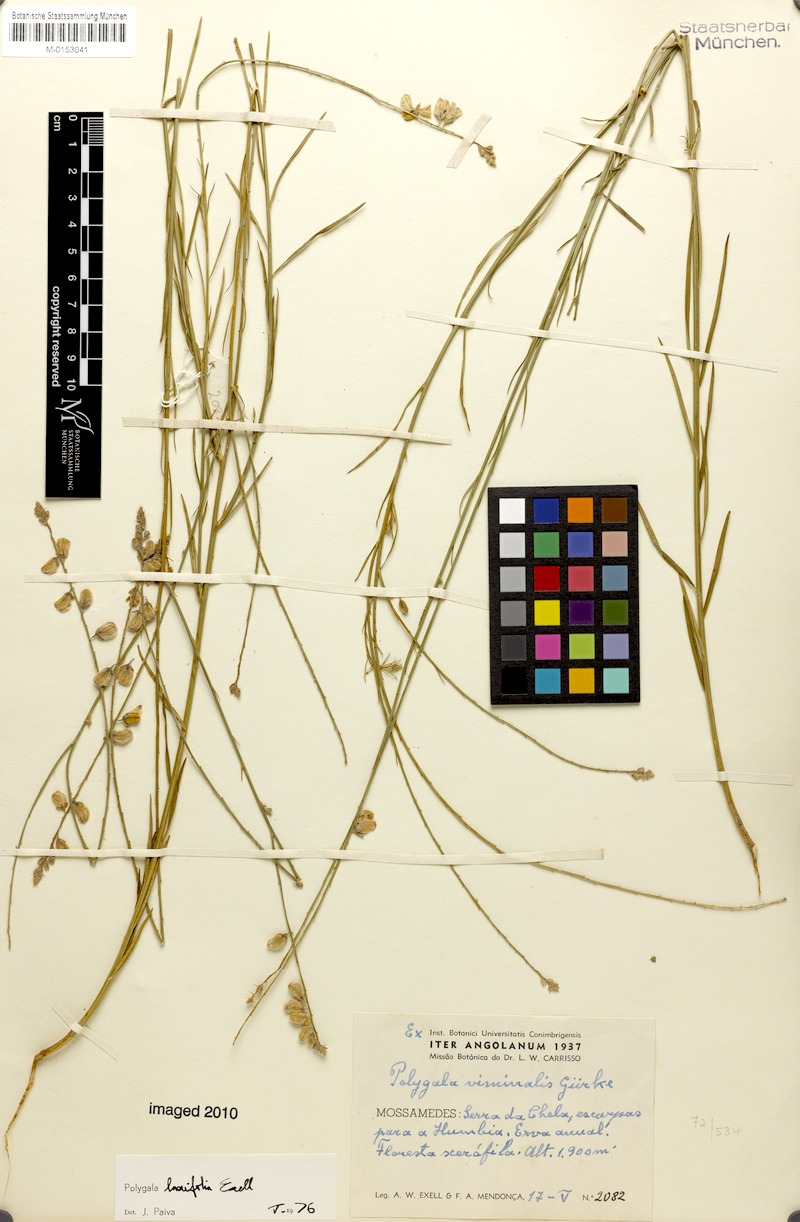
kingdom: Plantae
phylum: Tracheophyta
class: Magnoliopsida
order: Fabales
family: Polygalaceae
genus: Polygala
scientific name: Polygala laxifolia
